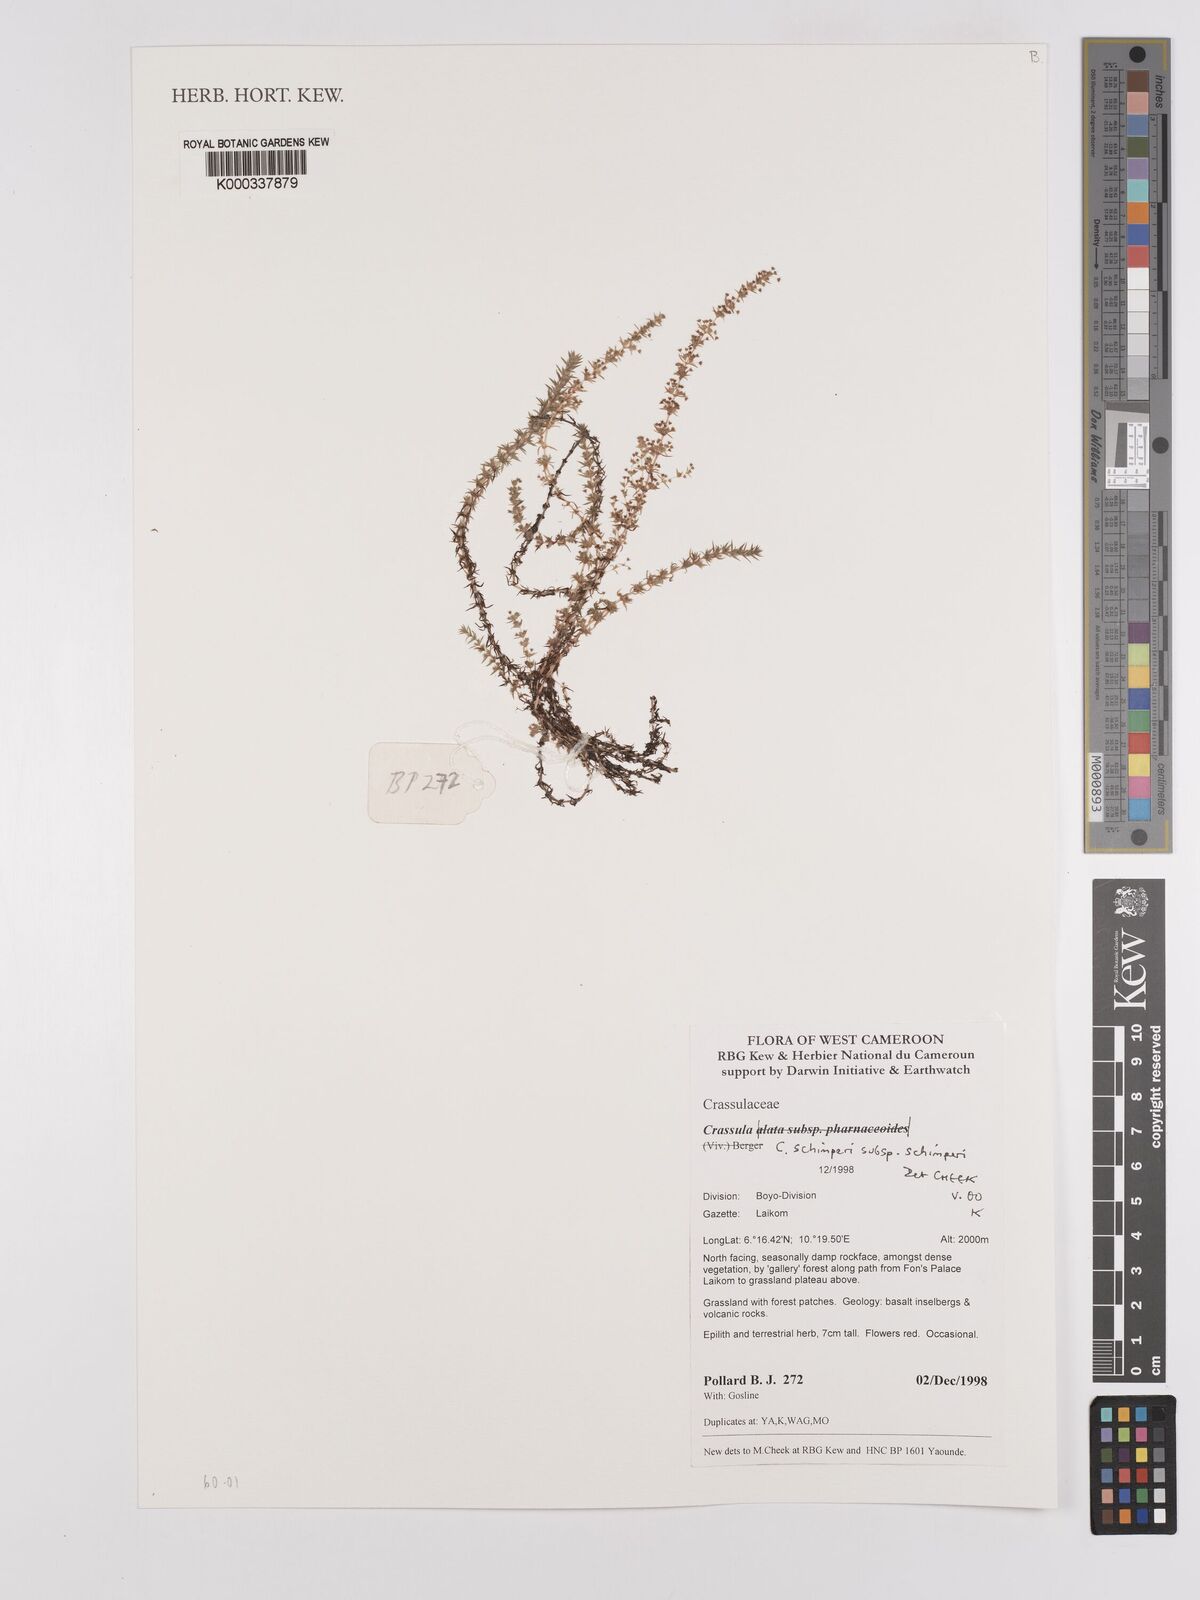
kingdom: Plantae
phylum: Tracheophyta
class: Magnoliopsida
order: Saxifragales
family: Crassulaceae
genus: Crassula
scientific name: Crassula vaginata
